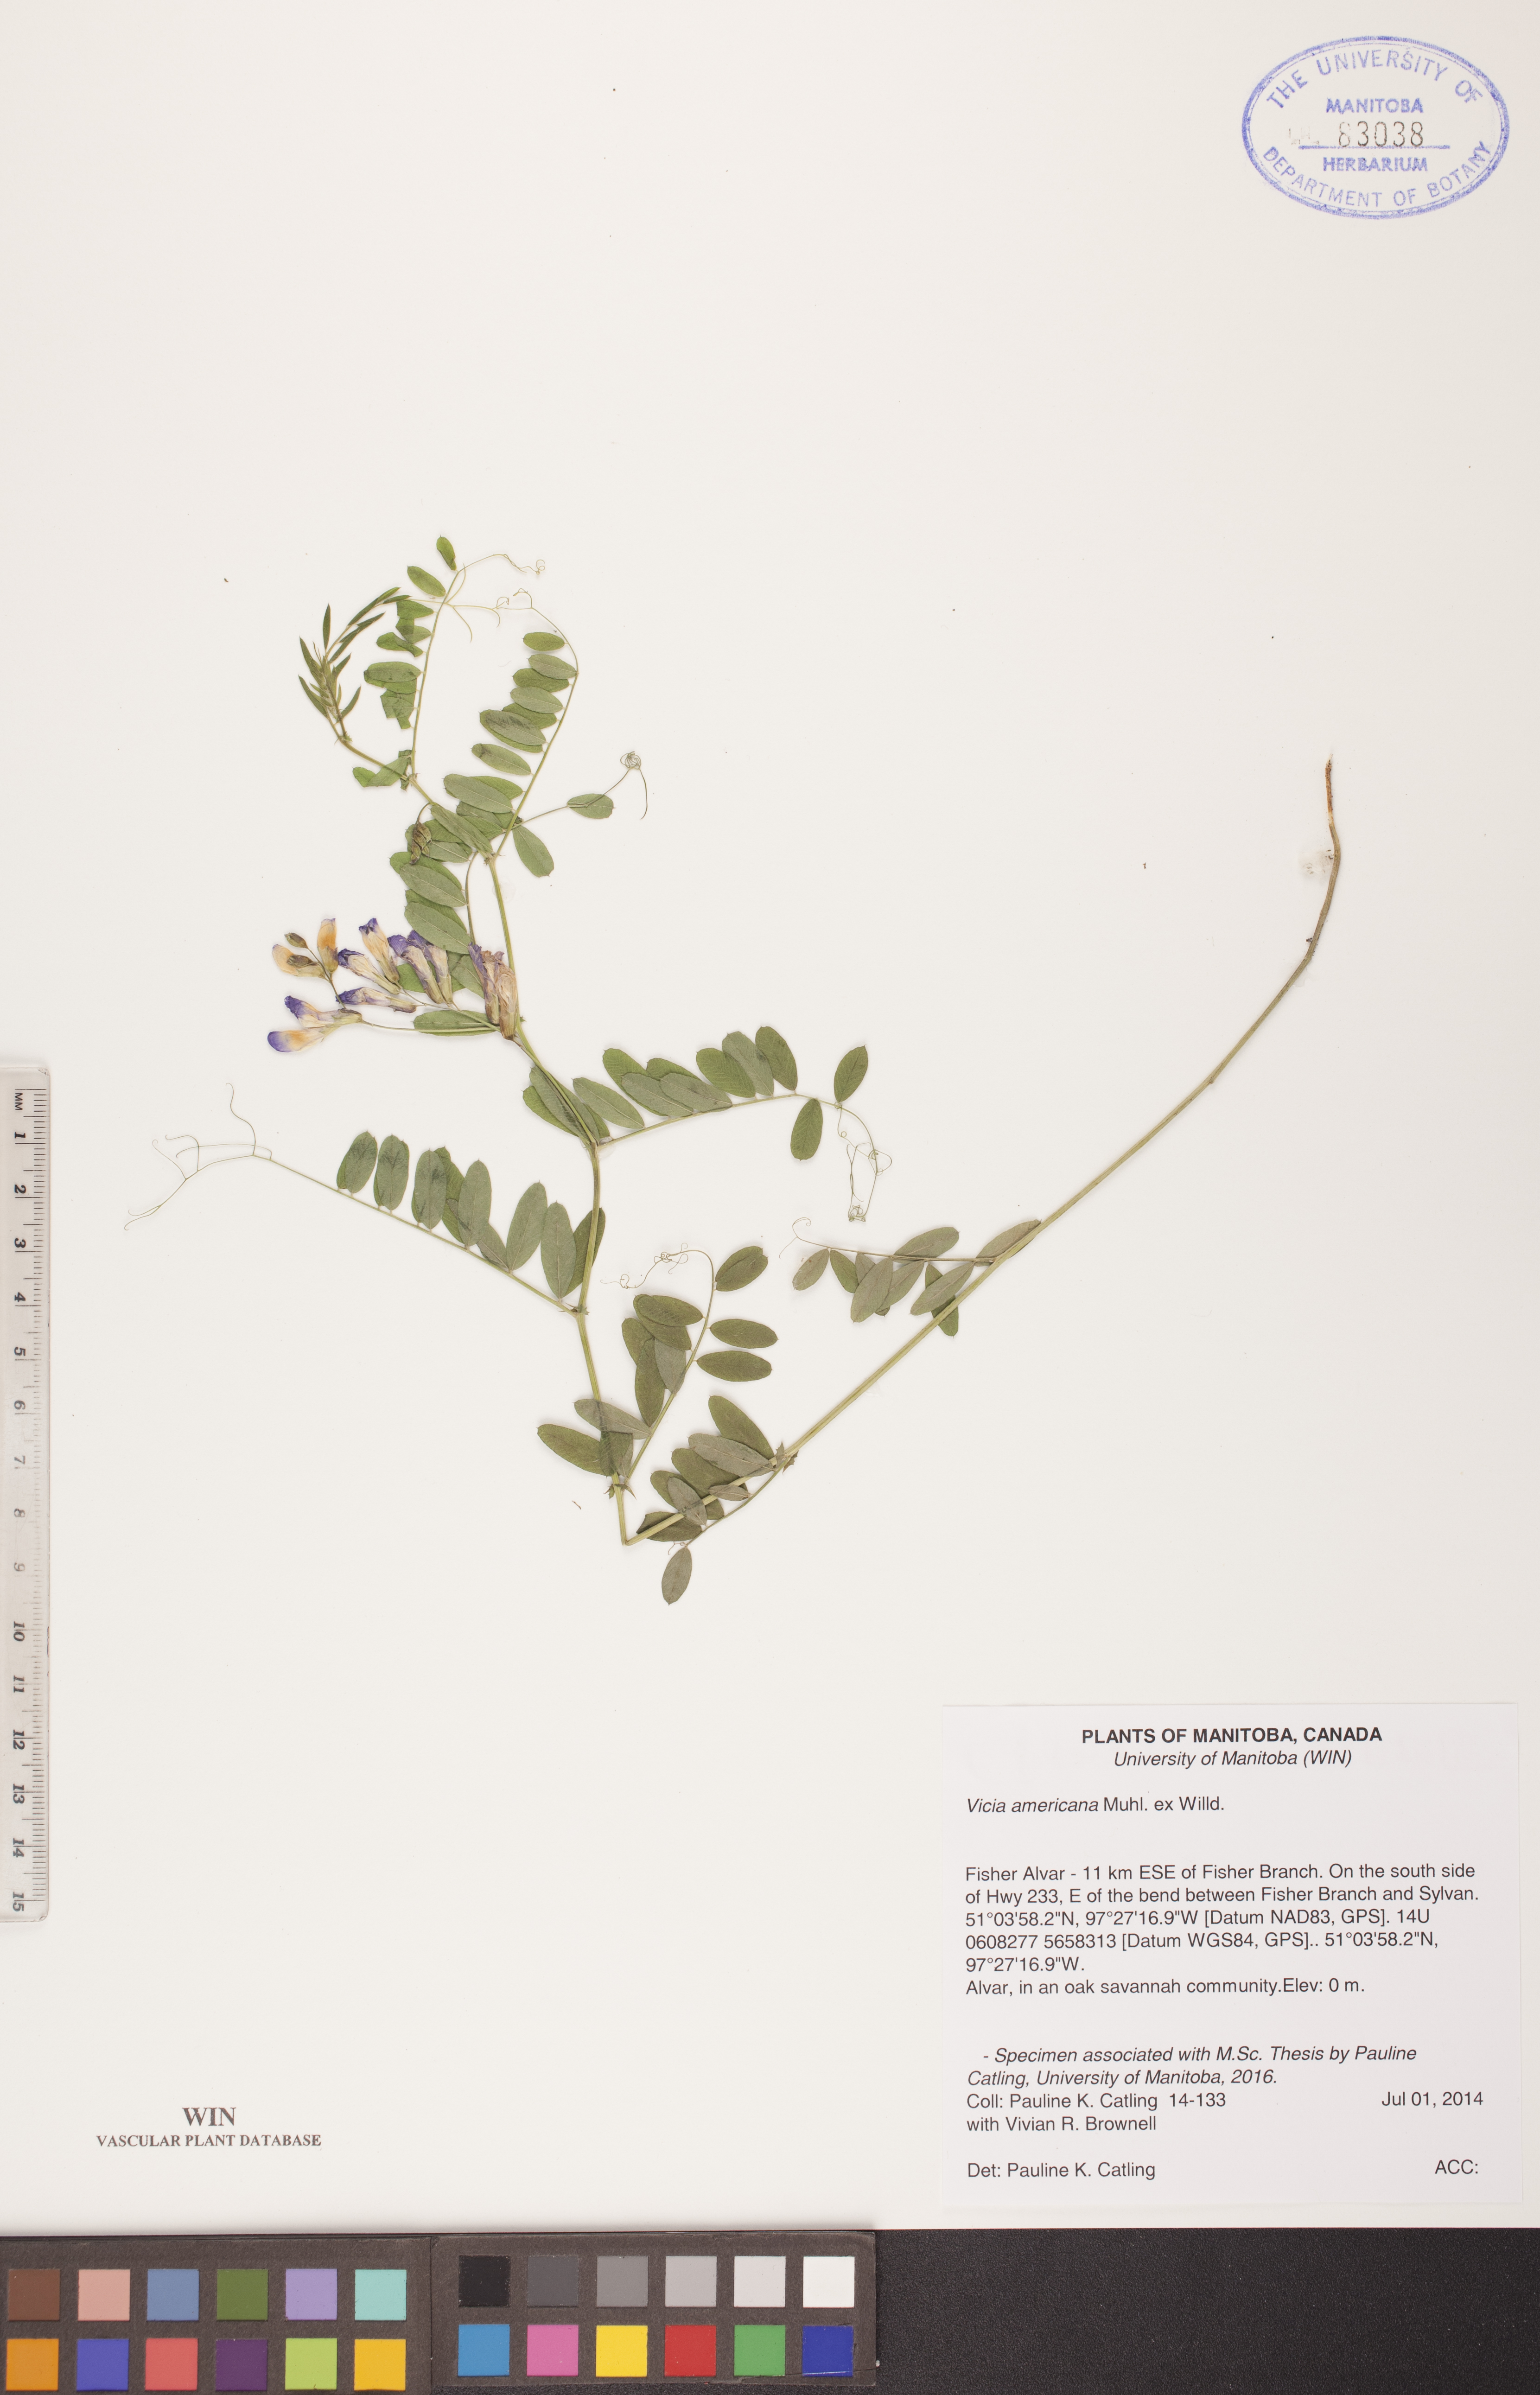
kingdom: Plantae
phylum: Tracheophyta
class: Magnoliopsida
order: Fabales
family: Fabaceae
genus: Vicia
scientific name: Vicia americana
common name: American vetch
